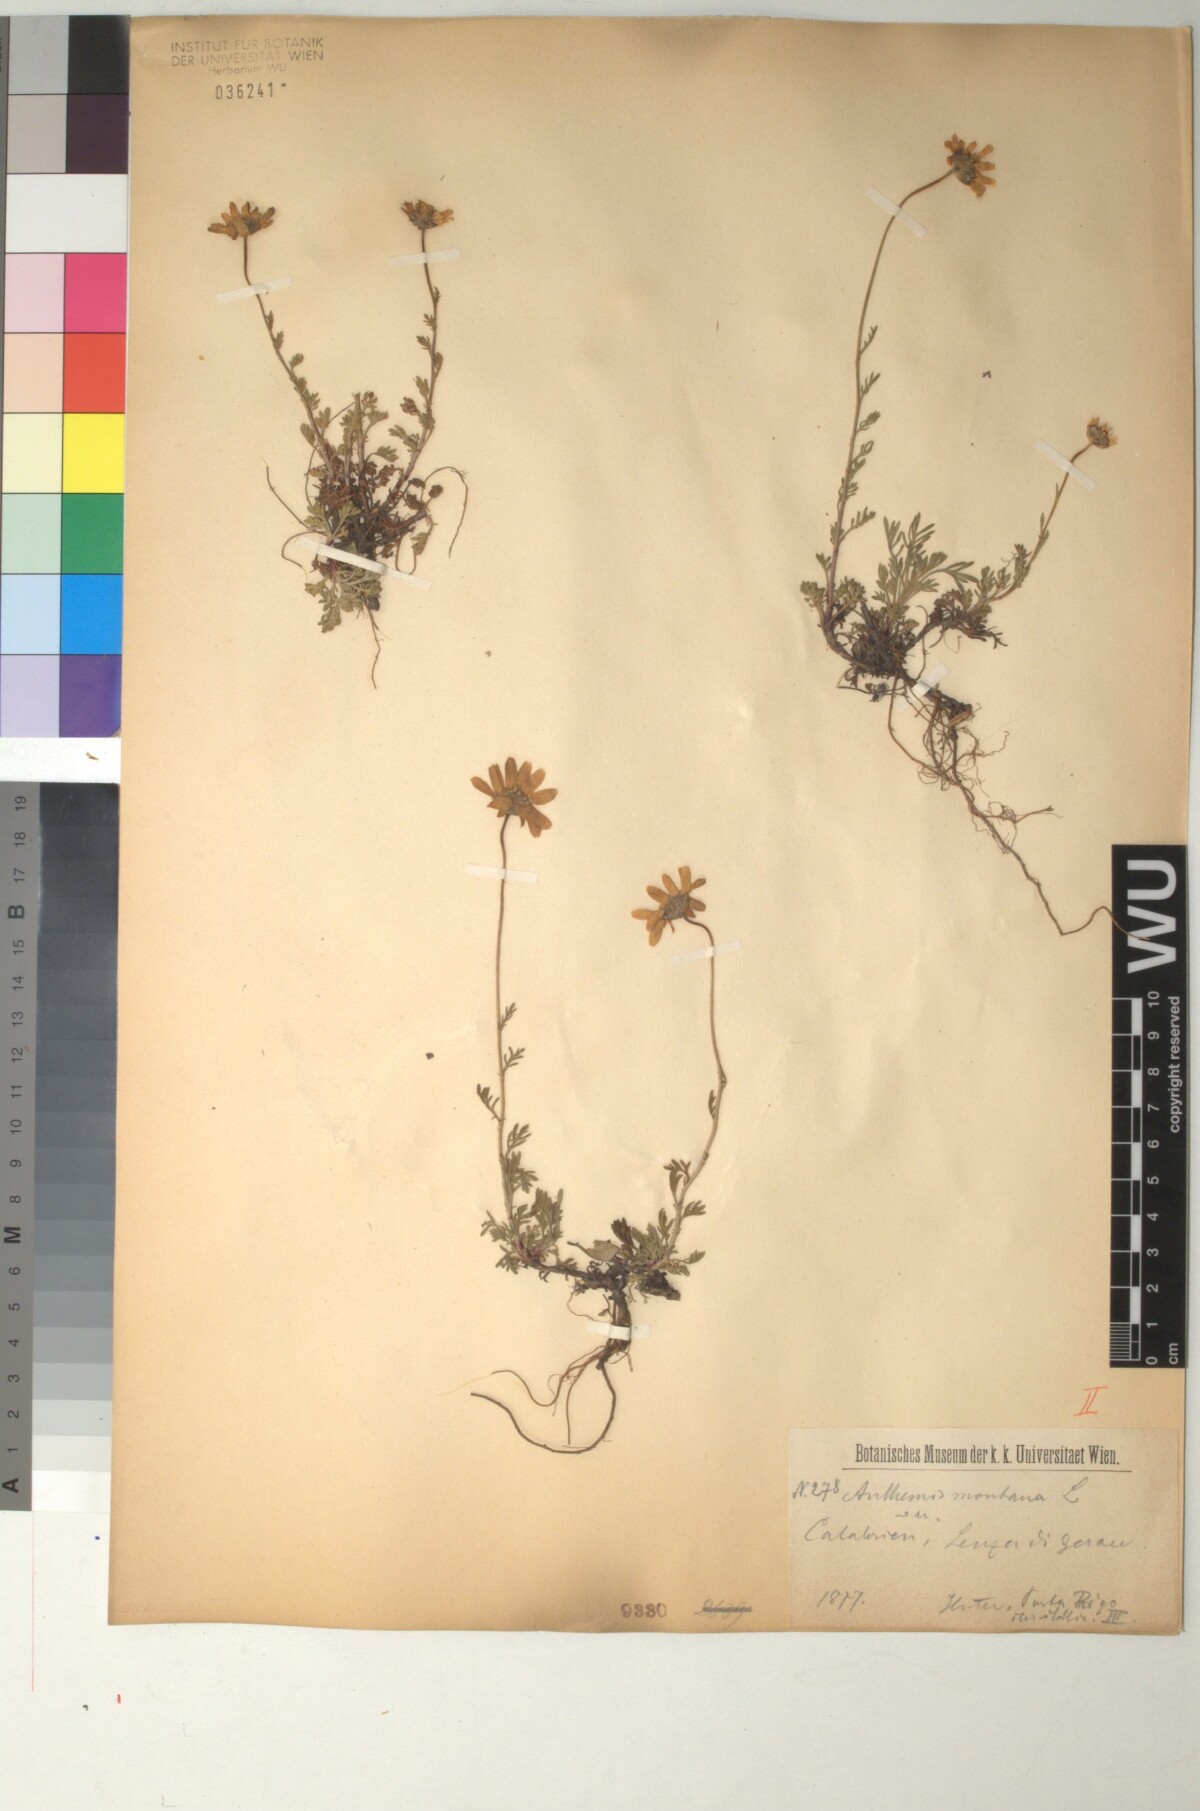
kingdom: Plantae
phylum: Tracheophyta
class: Magnoliopsida
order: Asterales
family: Asteraceae
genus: Anthemis
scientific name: Anthemis cretica
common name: Mountain dog-daisy
